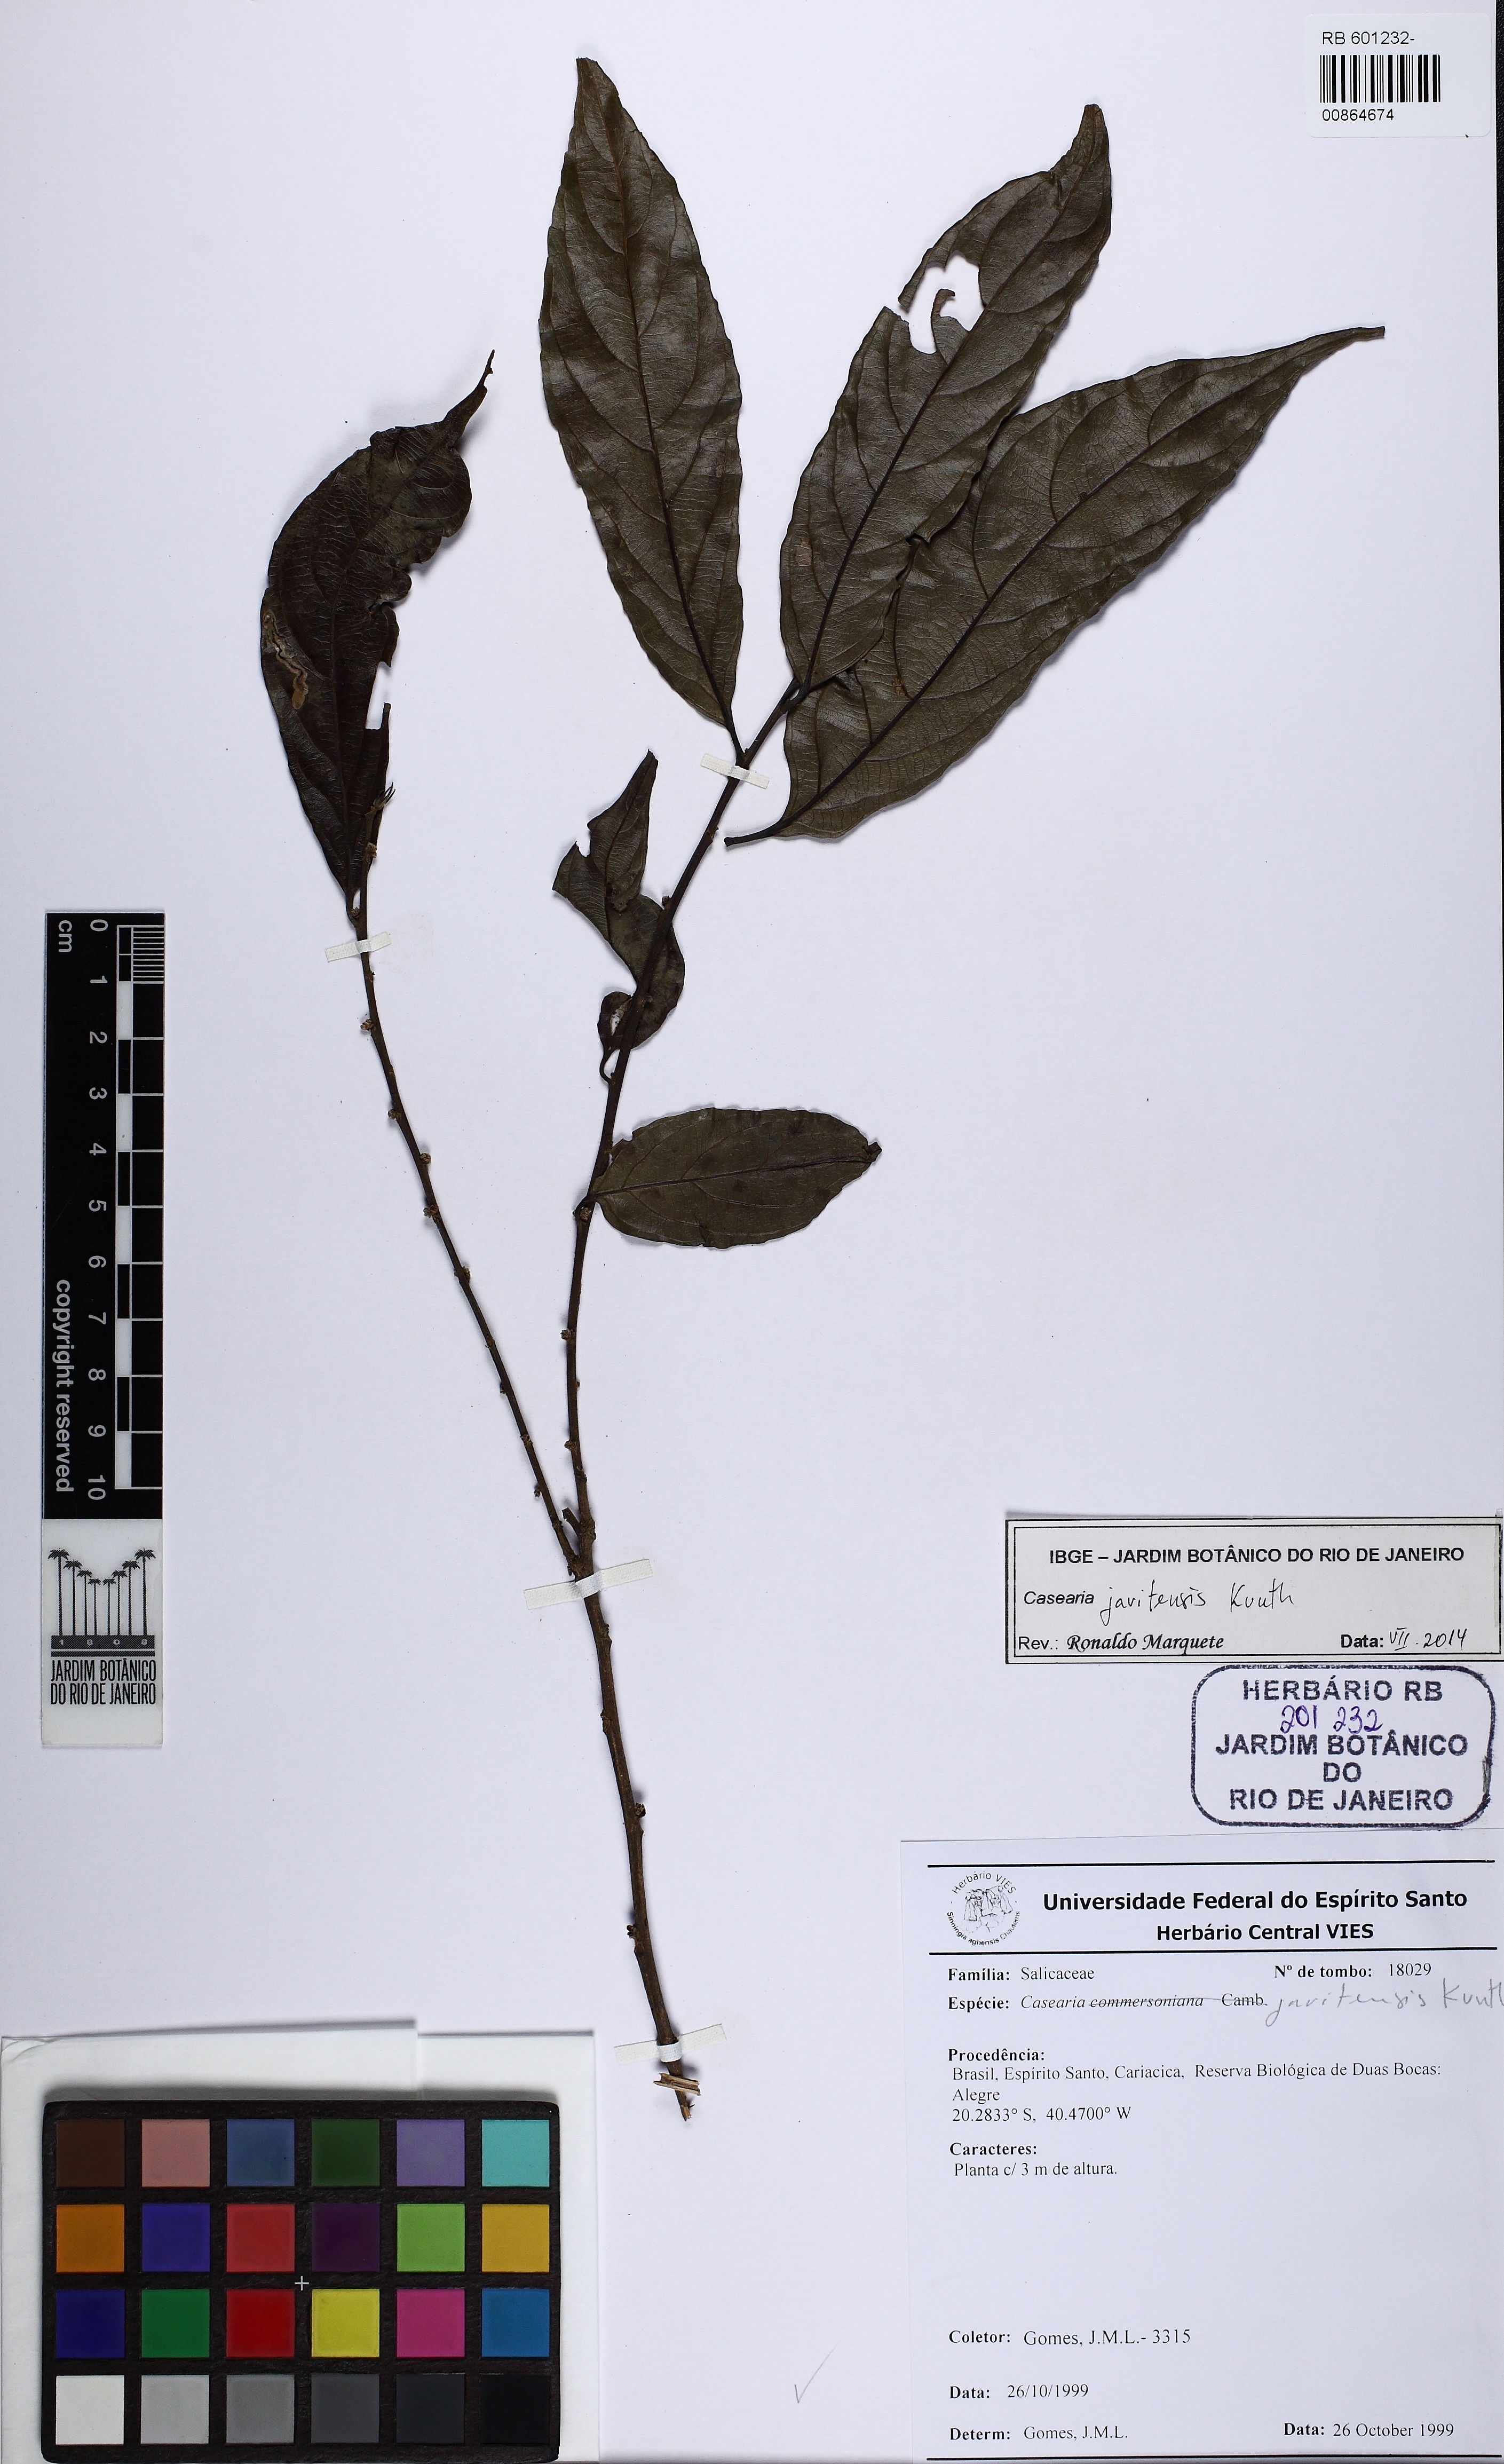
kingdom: Plantae
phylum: Tracheophyta
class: Magnoliopsida
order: Malpighiales
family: Salicaceae
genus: Piparea
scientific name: Piparea multiflora
